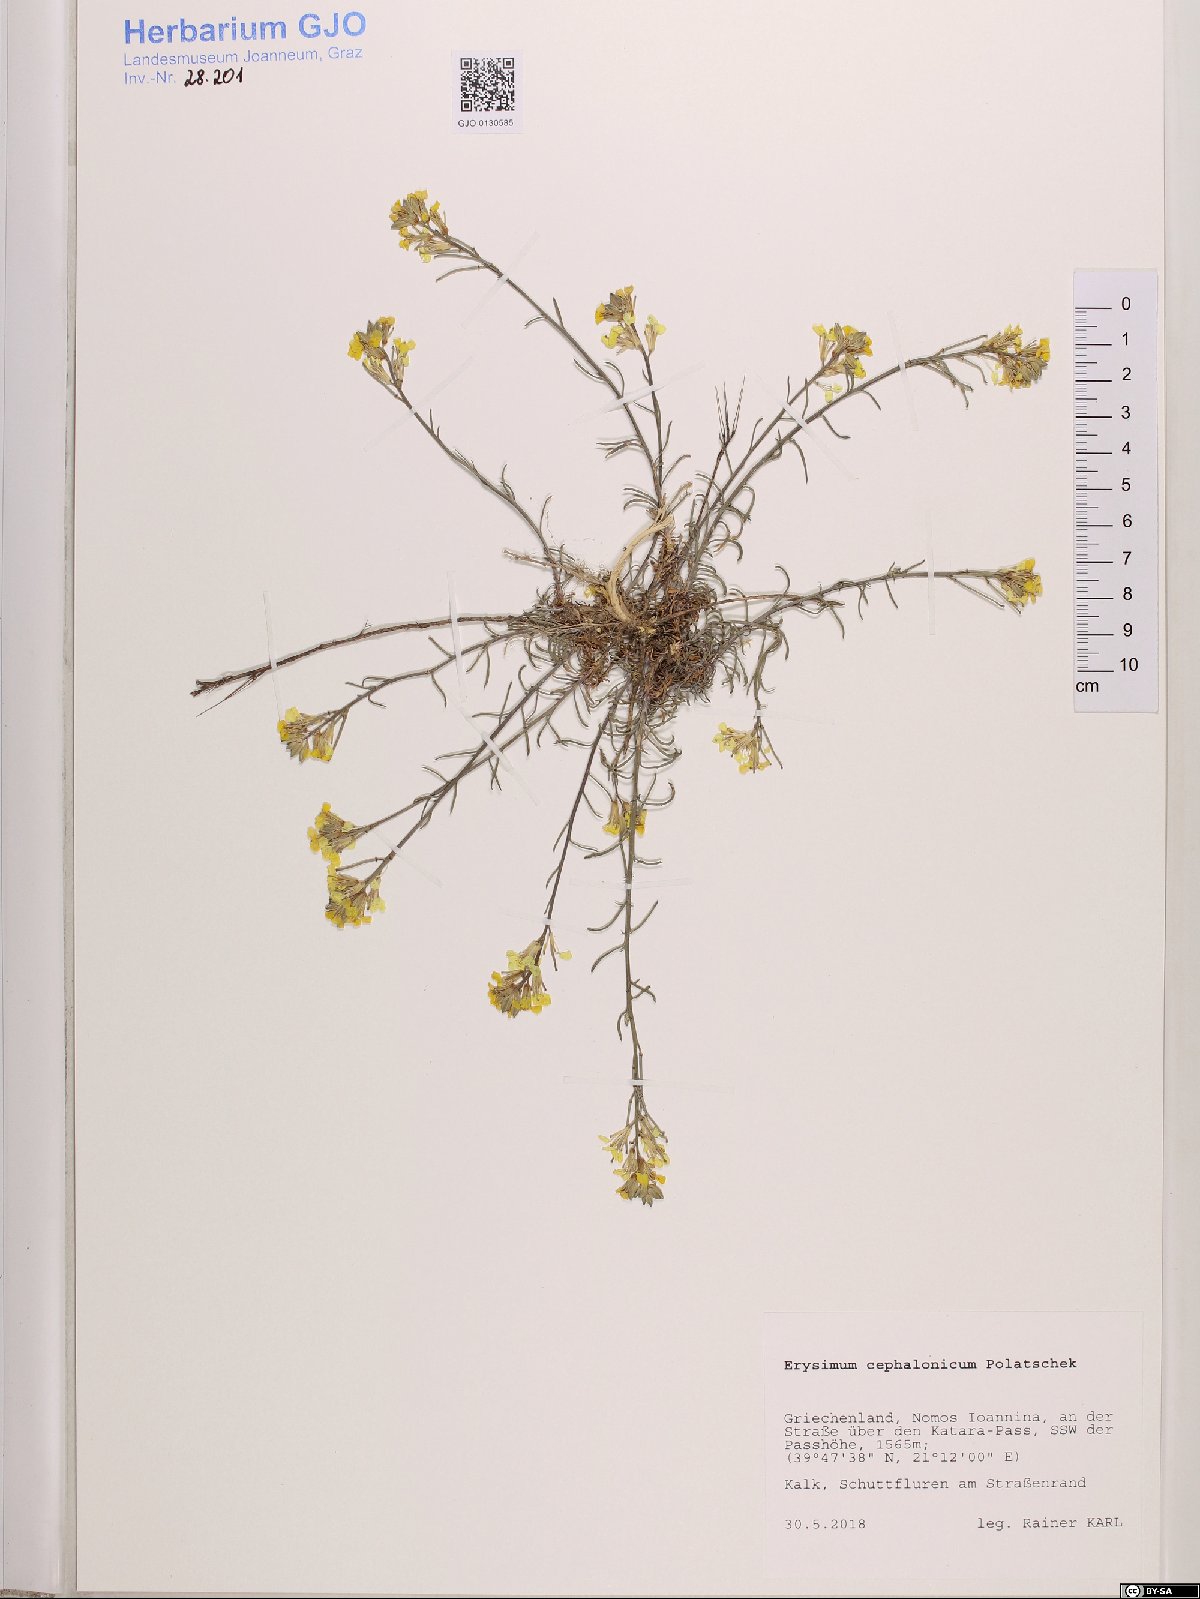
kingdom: Plantae
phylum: Tracheophyta
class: Magnoliopsida
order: Brassicales
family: Brassicaceae
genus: Erysimum
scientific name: Erysimum pusillum
